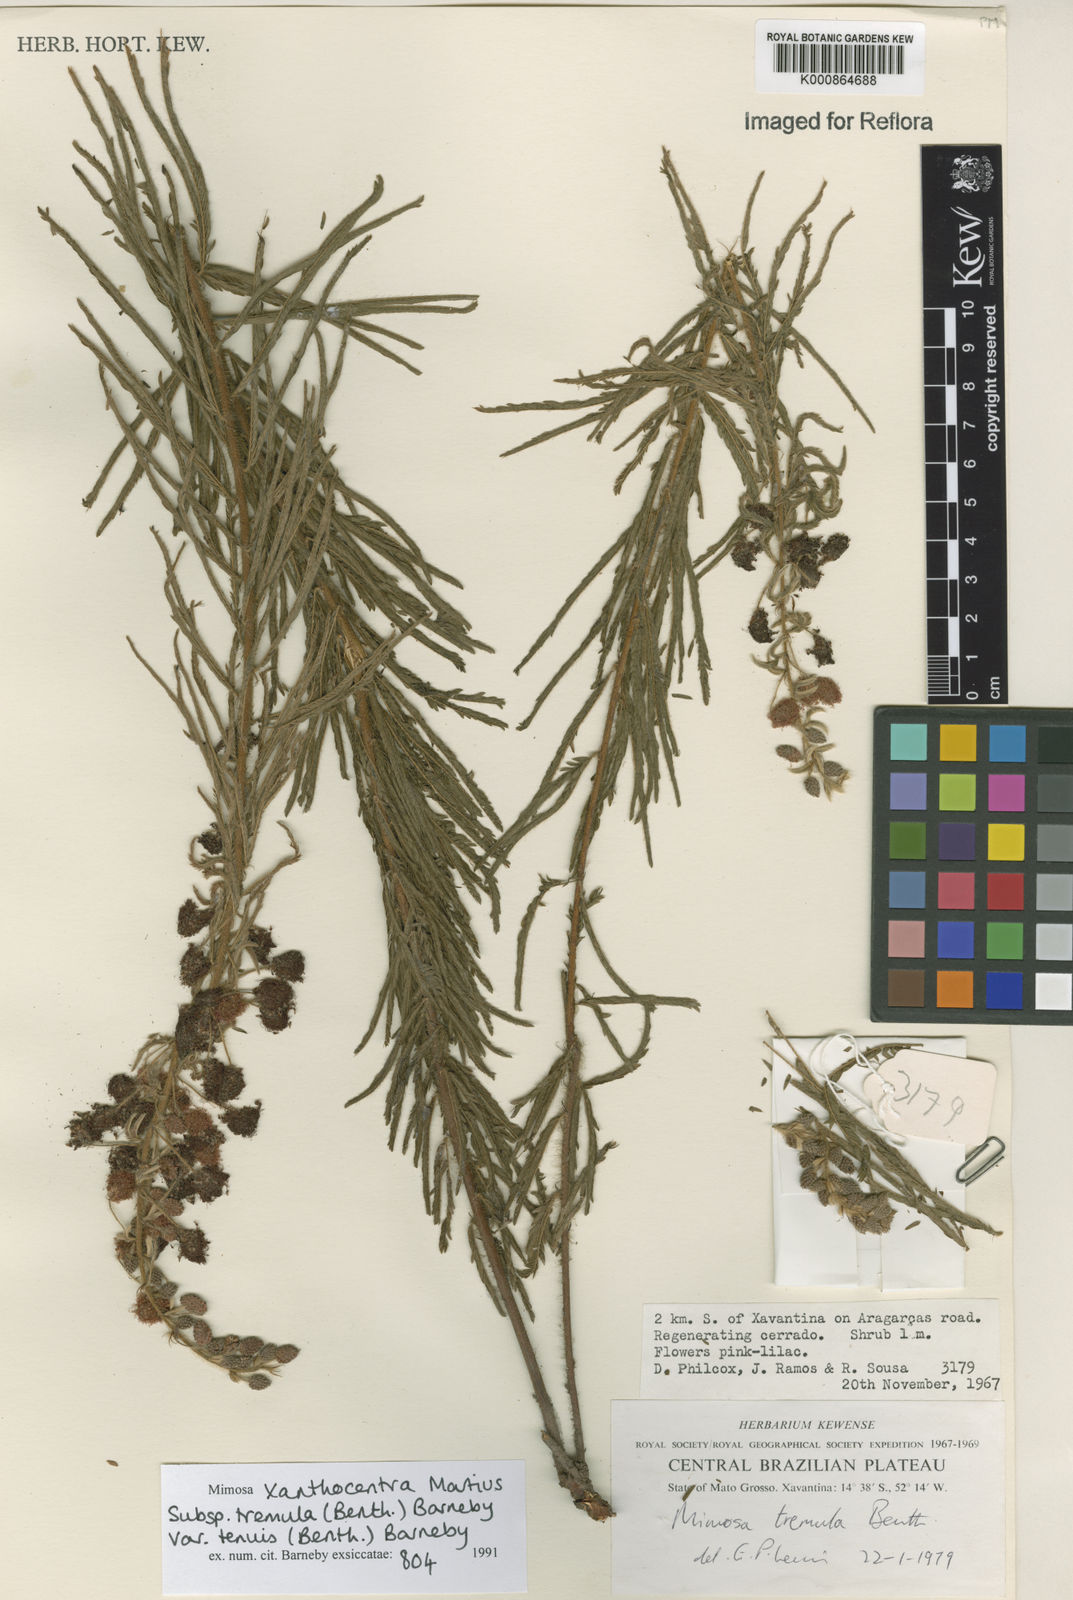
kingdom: Plantae
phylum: Tracheophyta
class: Magnoliopsida
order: Fabales
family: Fabaceae
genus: Mimosa
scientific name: Mimosa xanthocentra
